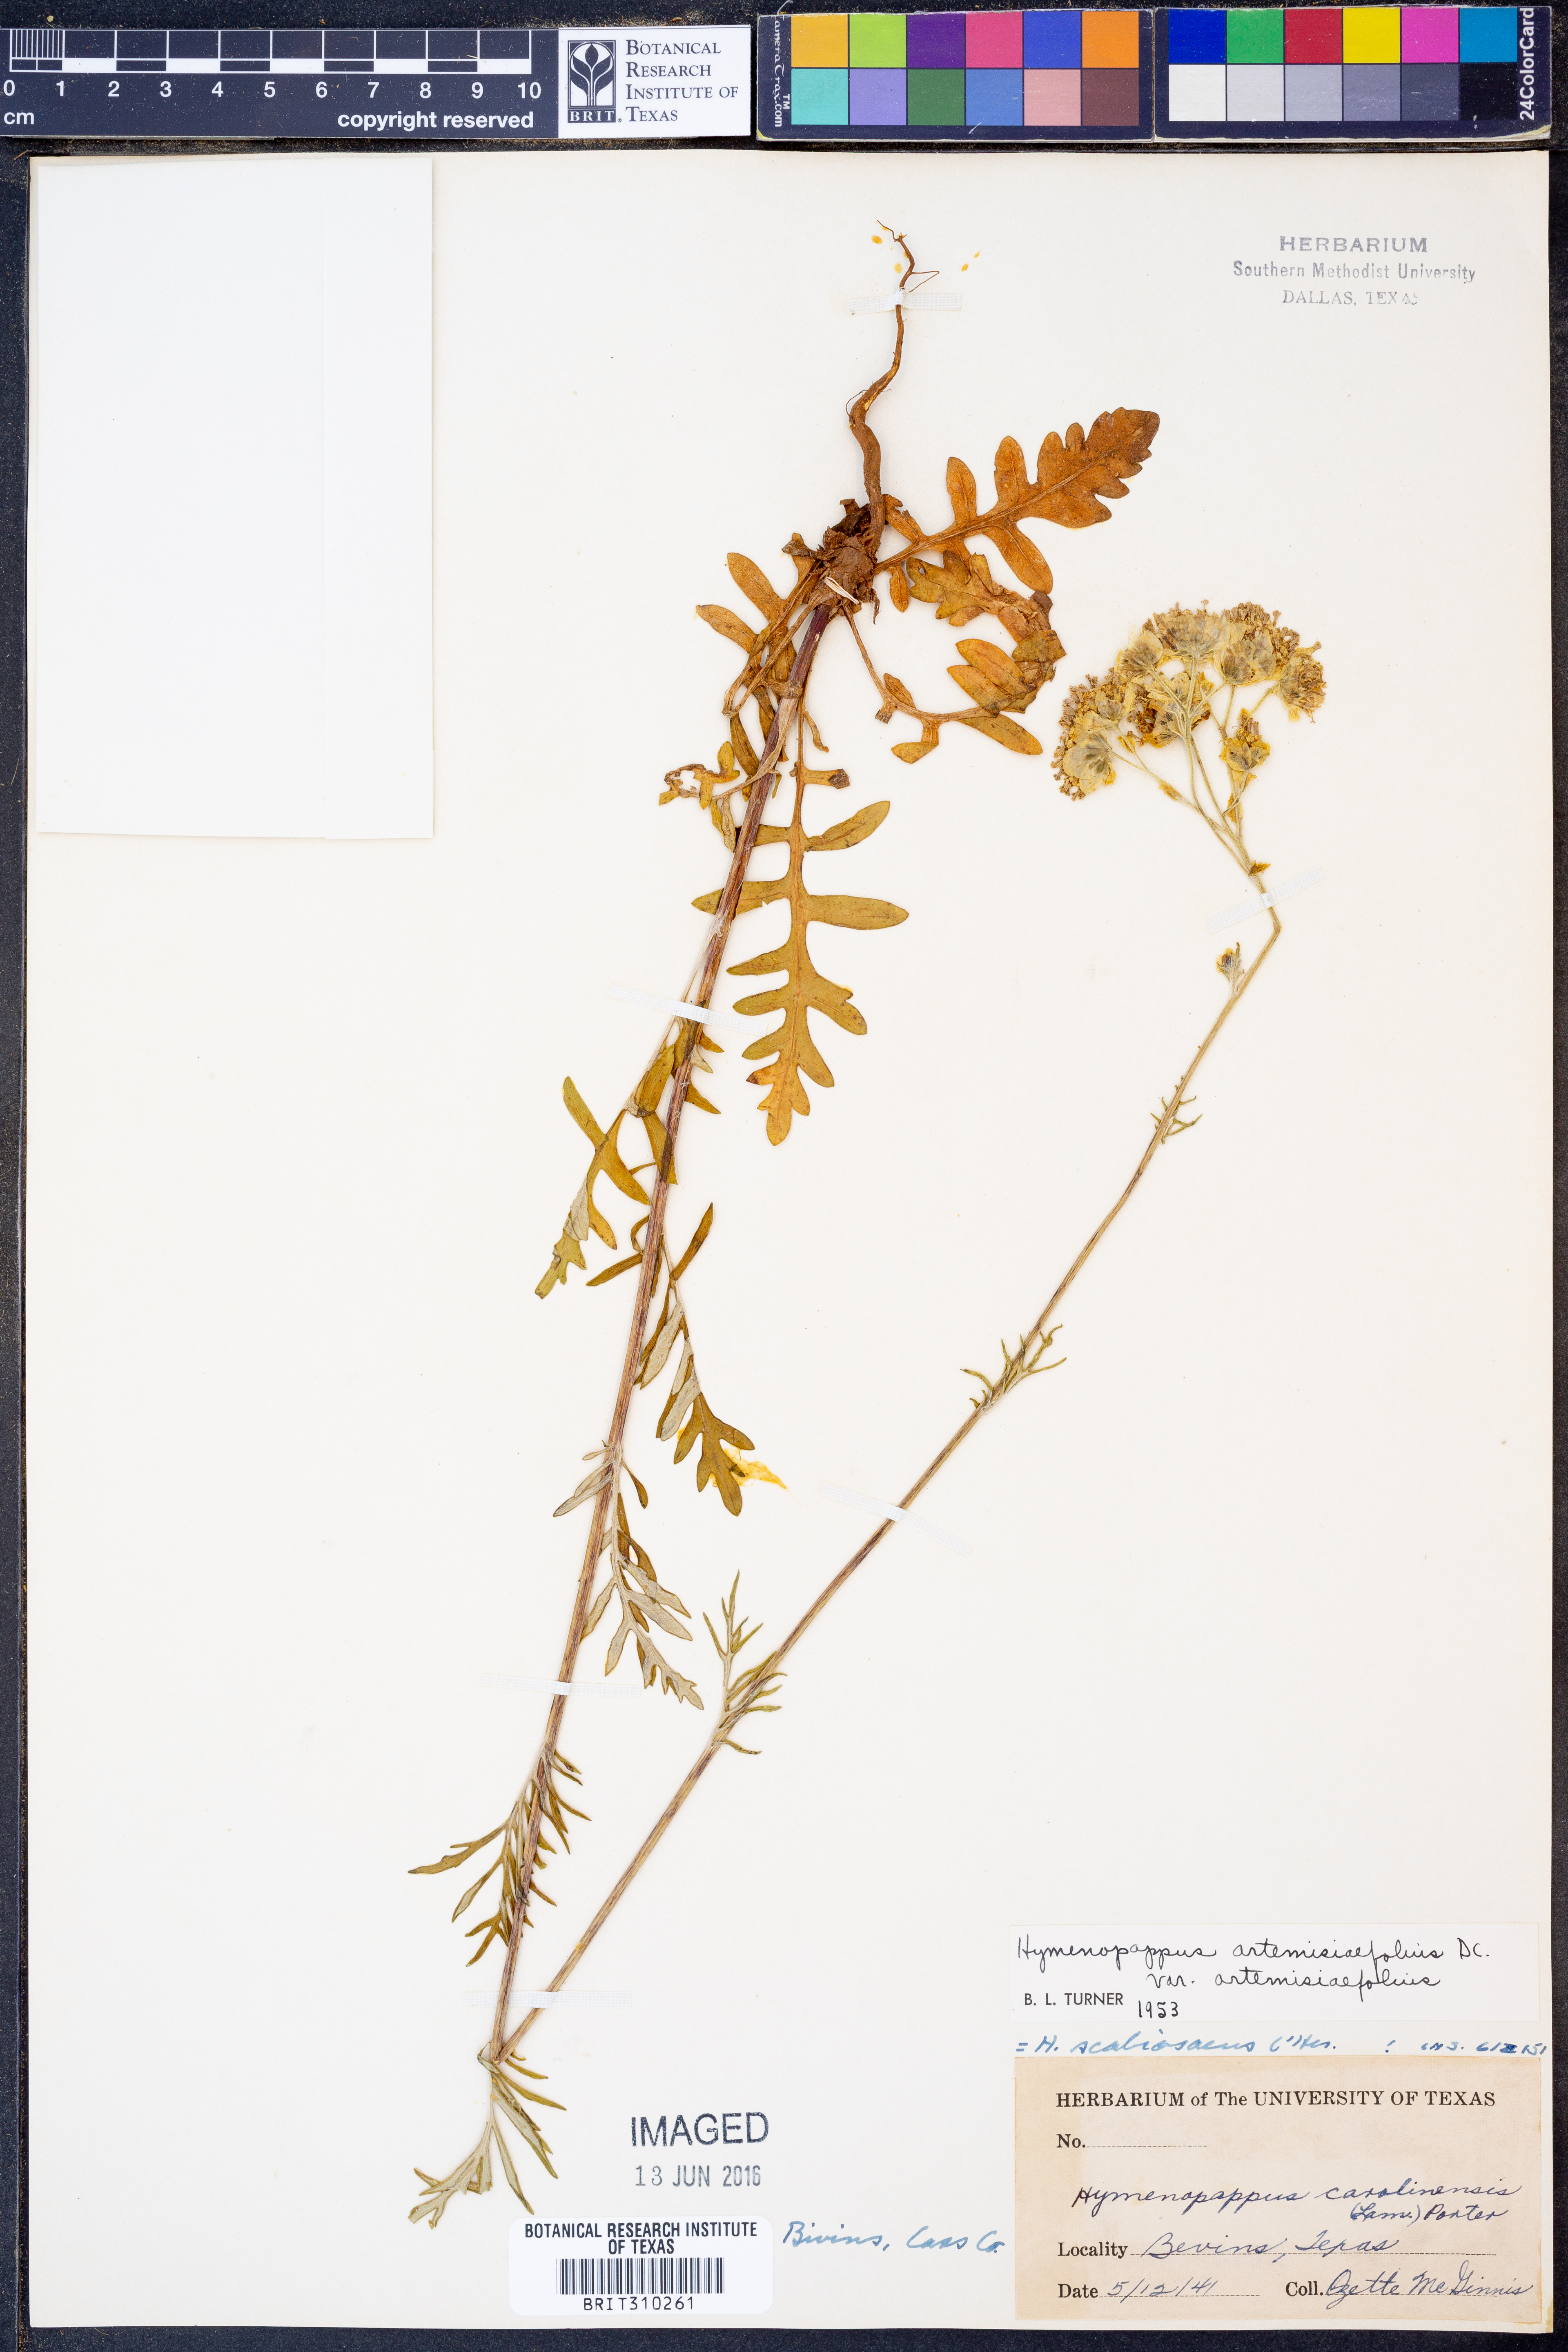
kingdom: Plantae
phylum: Tracheophyta
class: Magnoliopsida
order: Asterales
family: Asteraceae
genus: Hymenopappus
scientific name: Hymenopappus artemisiifolius
